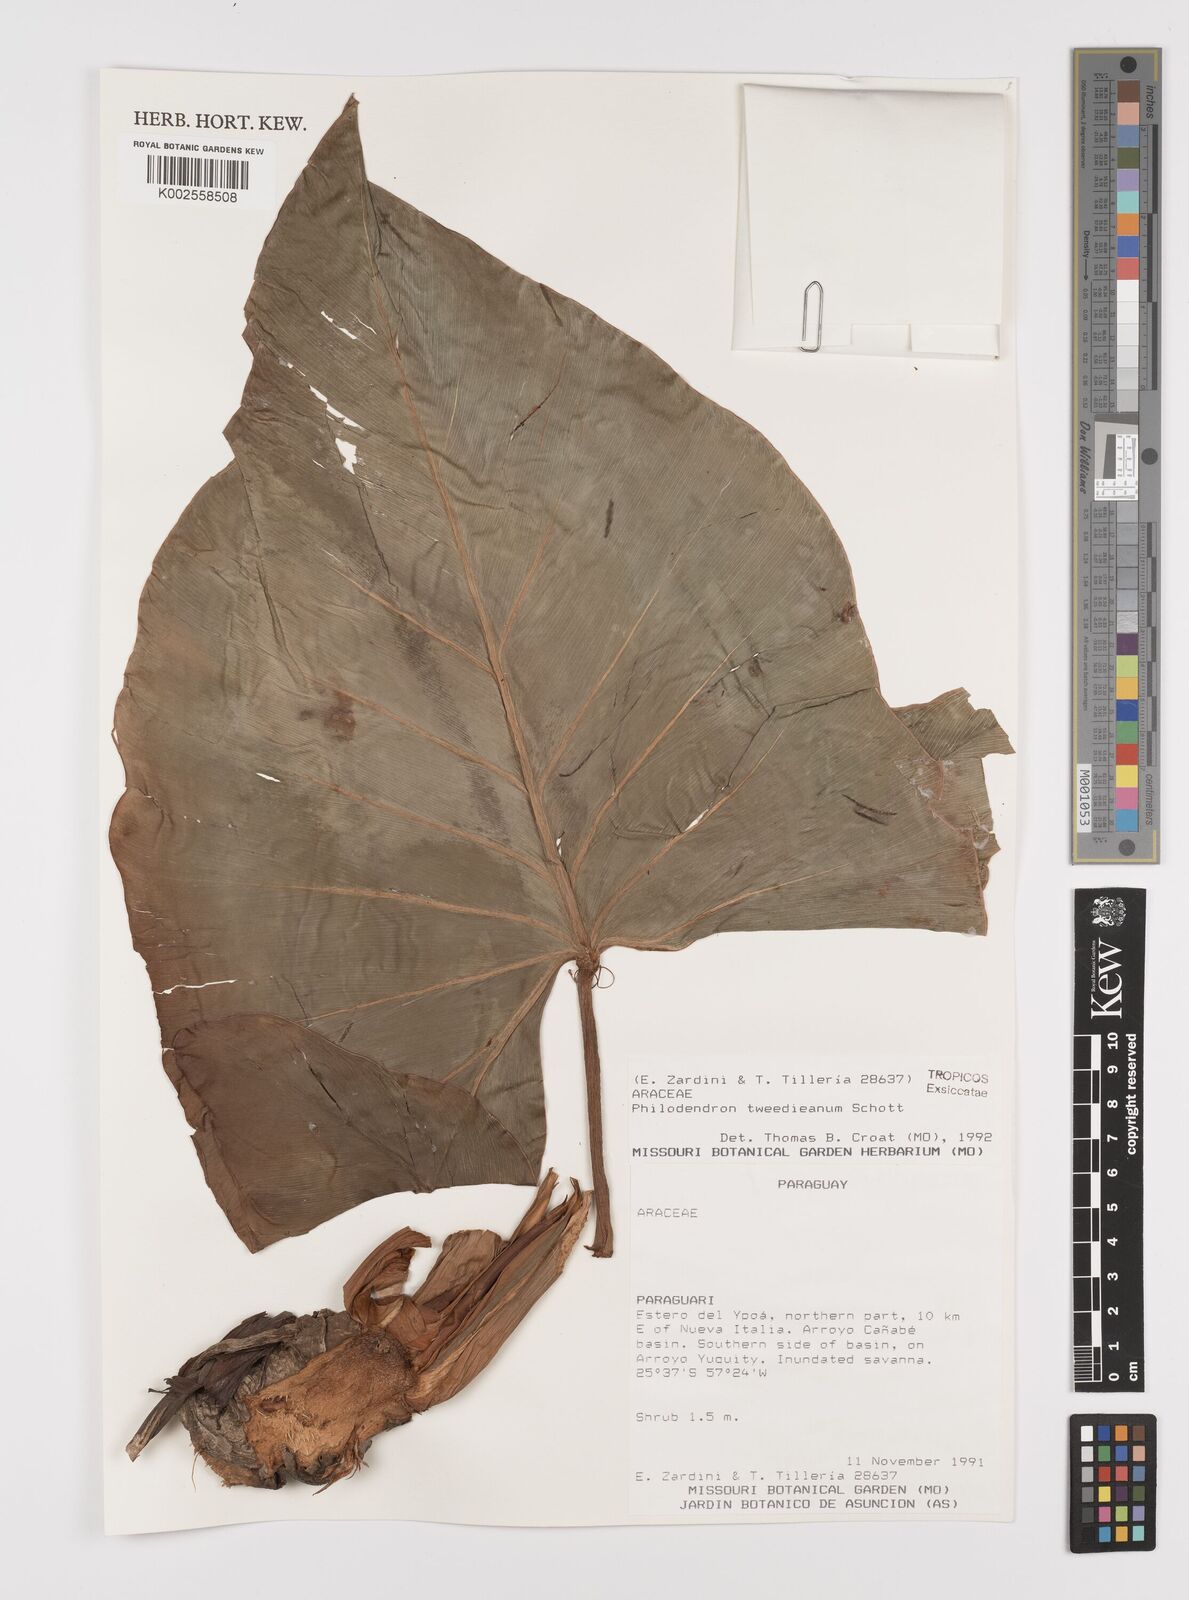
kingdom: Plantae
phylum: Tracheophyta
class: Liliopsida
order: Alismatales
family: Araceae
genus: Thaumatophyllum
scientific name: Thaumatophyllum tweedieanum
